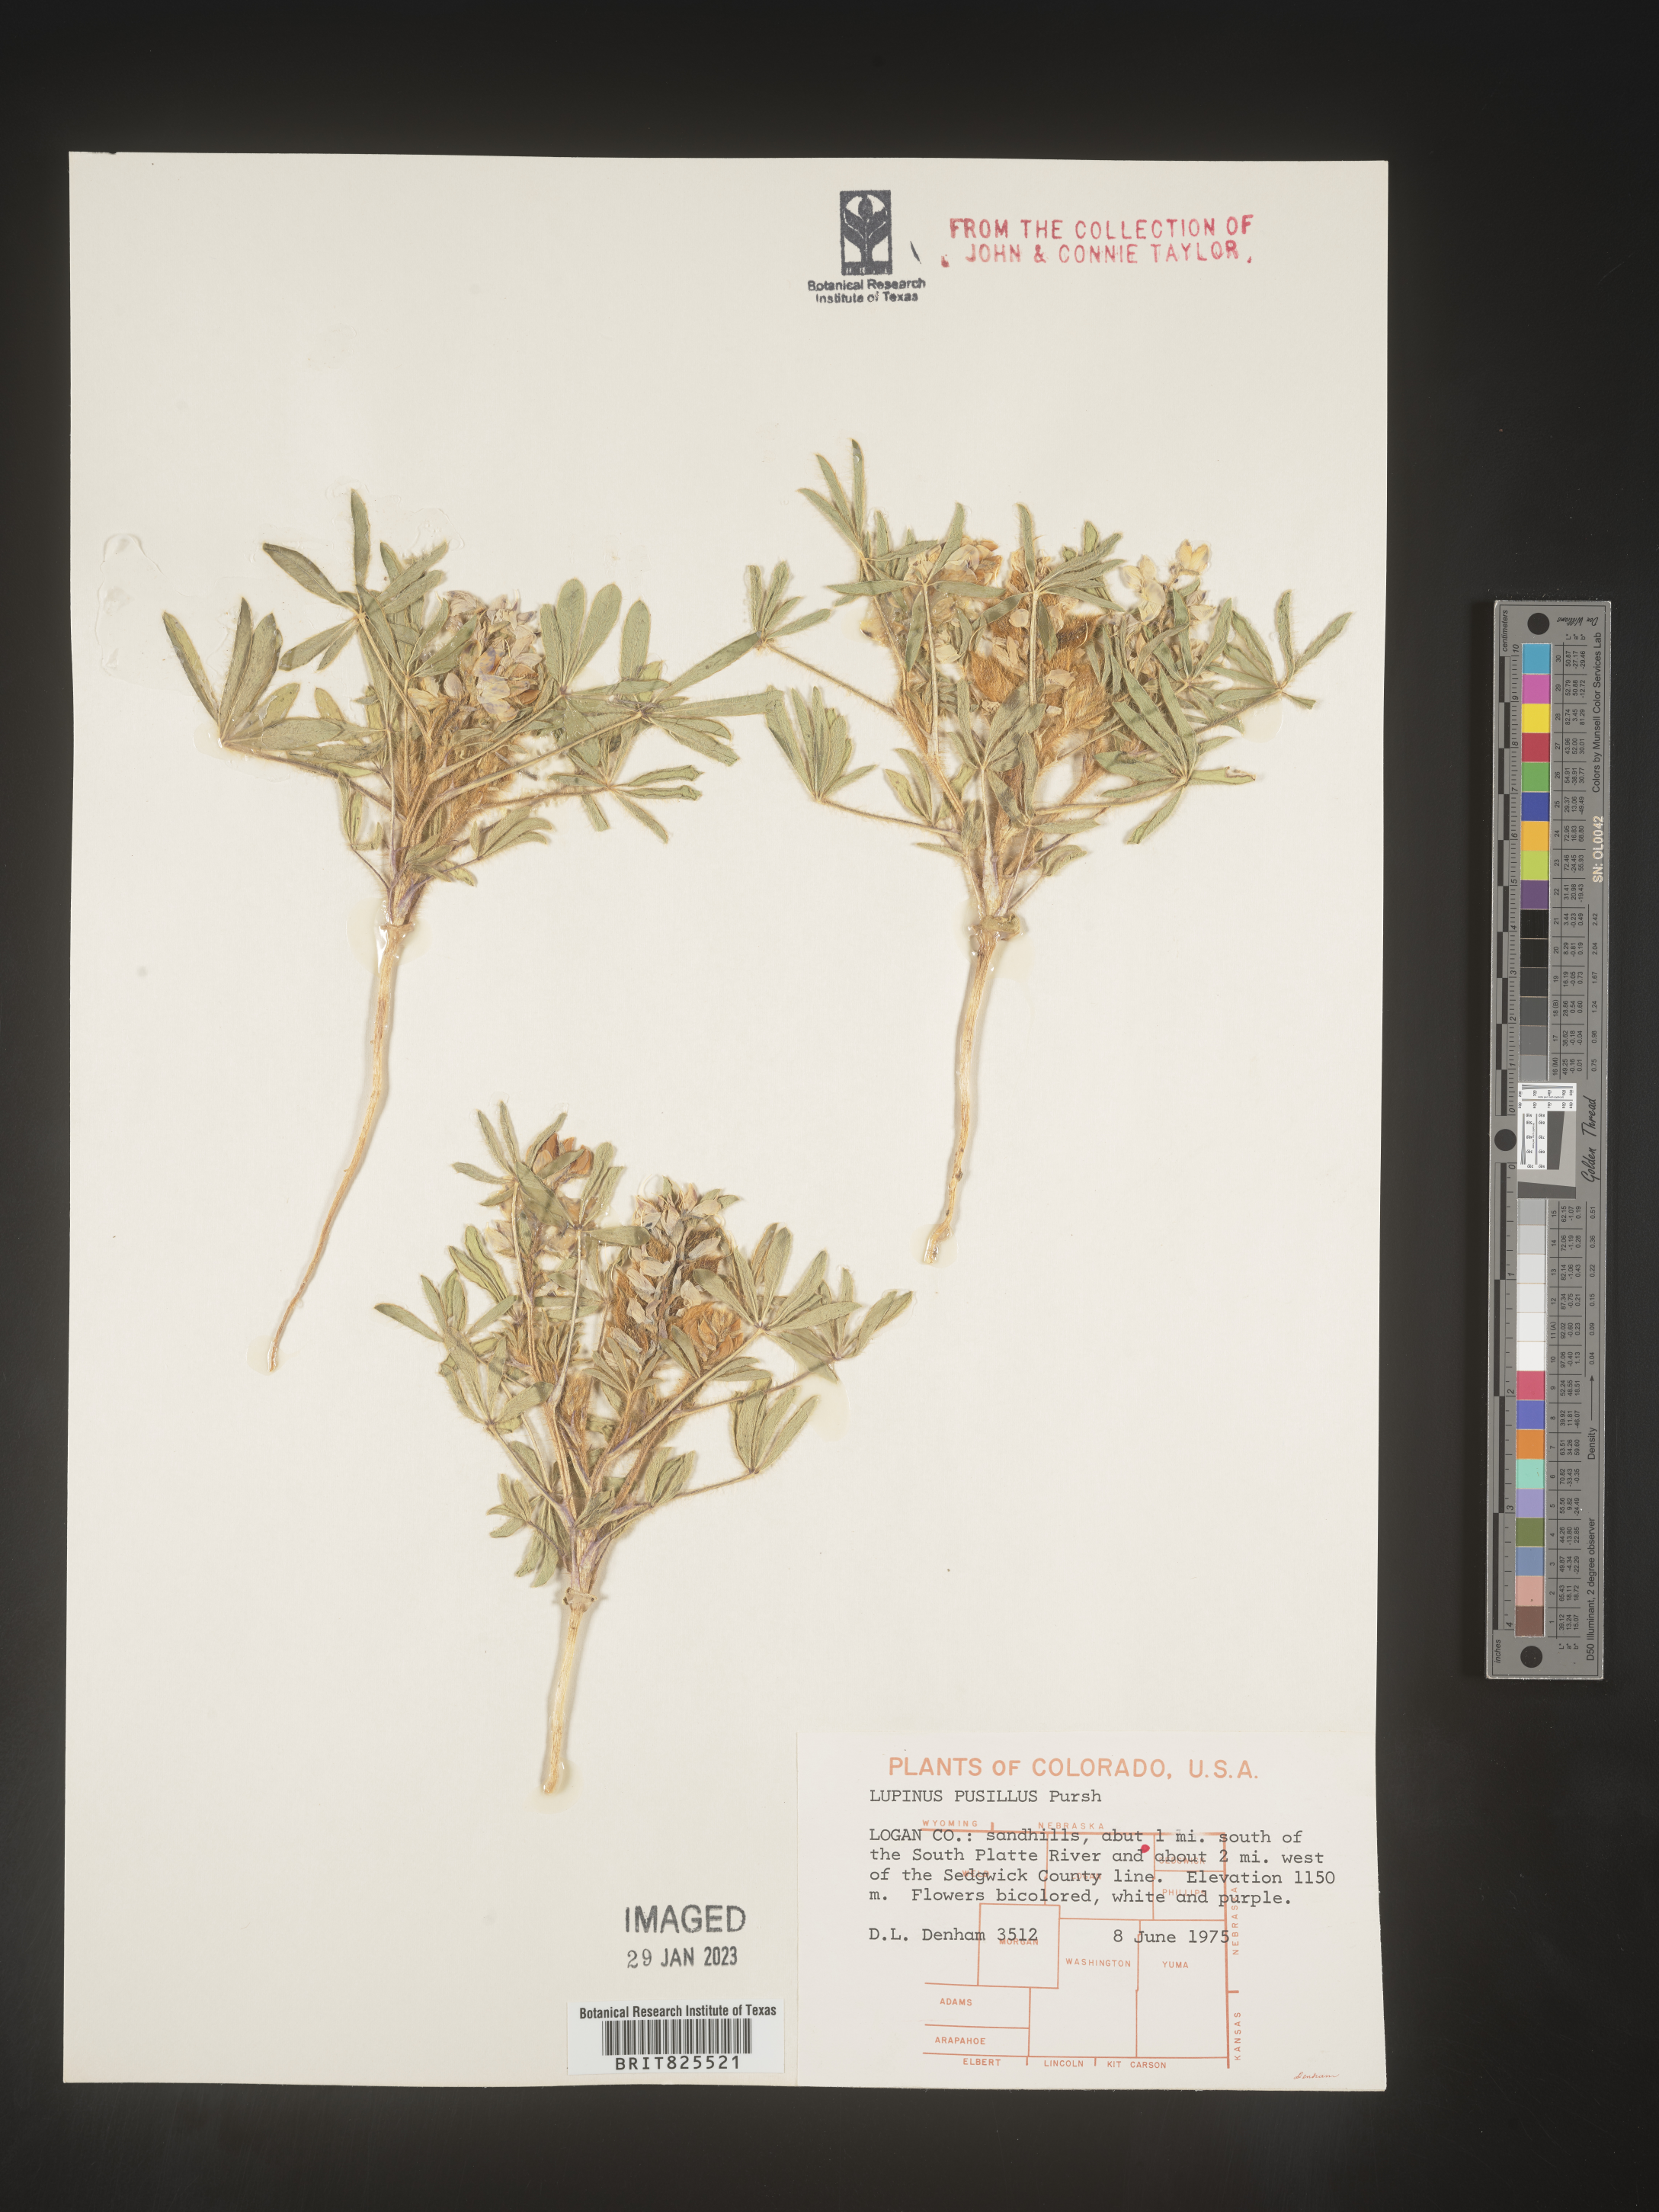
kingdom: Plantae
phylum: Tracheophyta
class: Magnoliopsida
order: Fabales
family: Fabaceae
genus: Lupinus
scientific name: Lupinus
